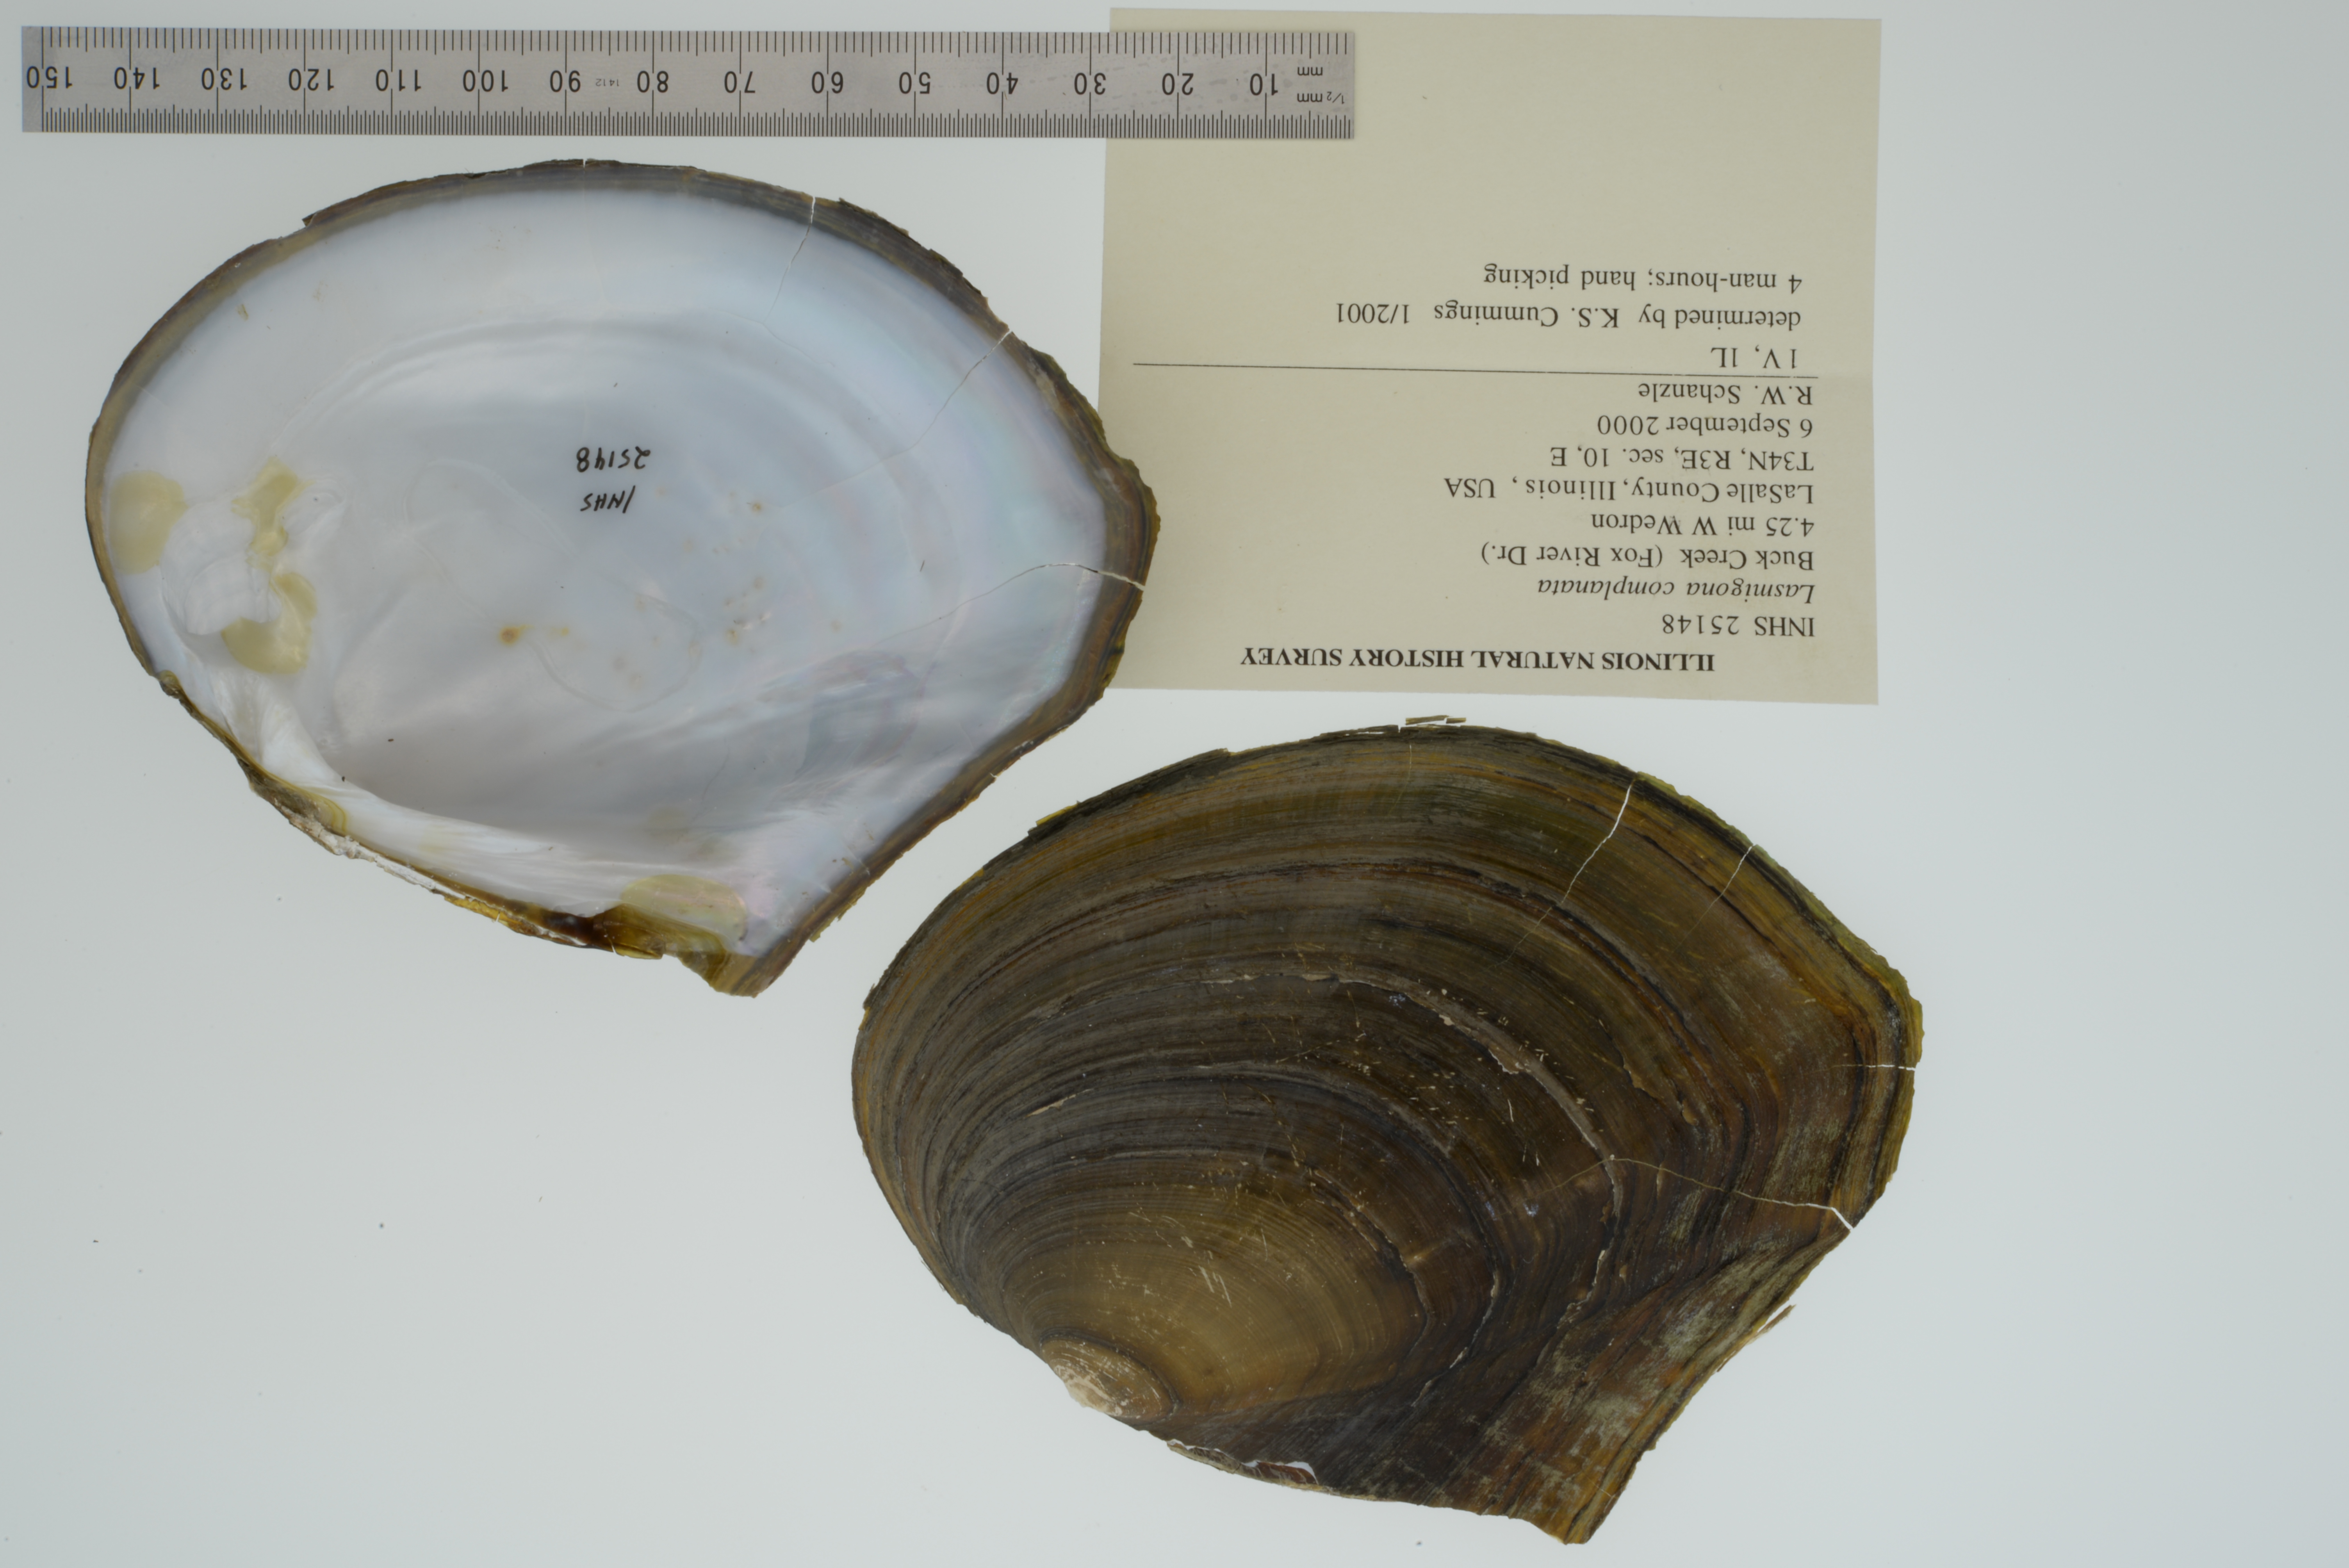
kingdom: Animalia
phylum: Mollusca
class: Bivalvia
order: Unionida
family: Unionidae
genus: Lasmigona
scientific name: Lasmigona complanata
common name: White heelsplitter
